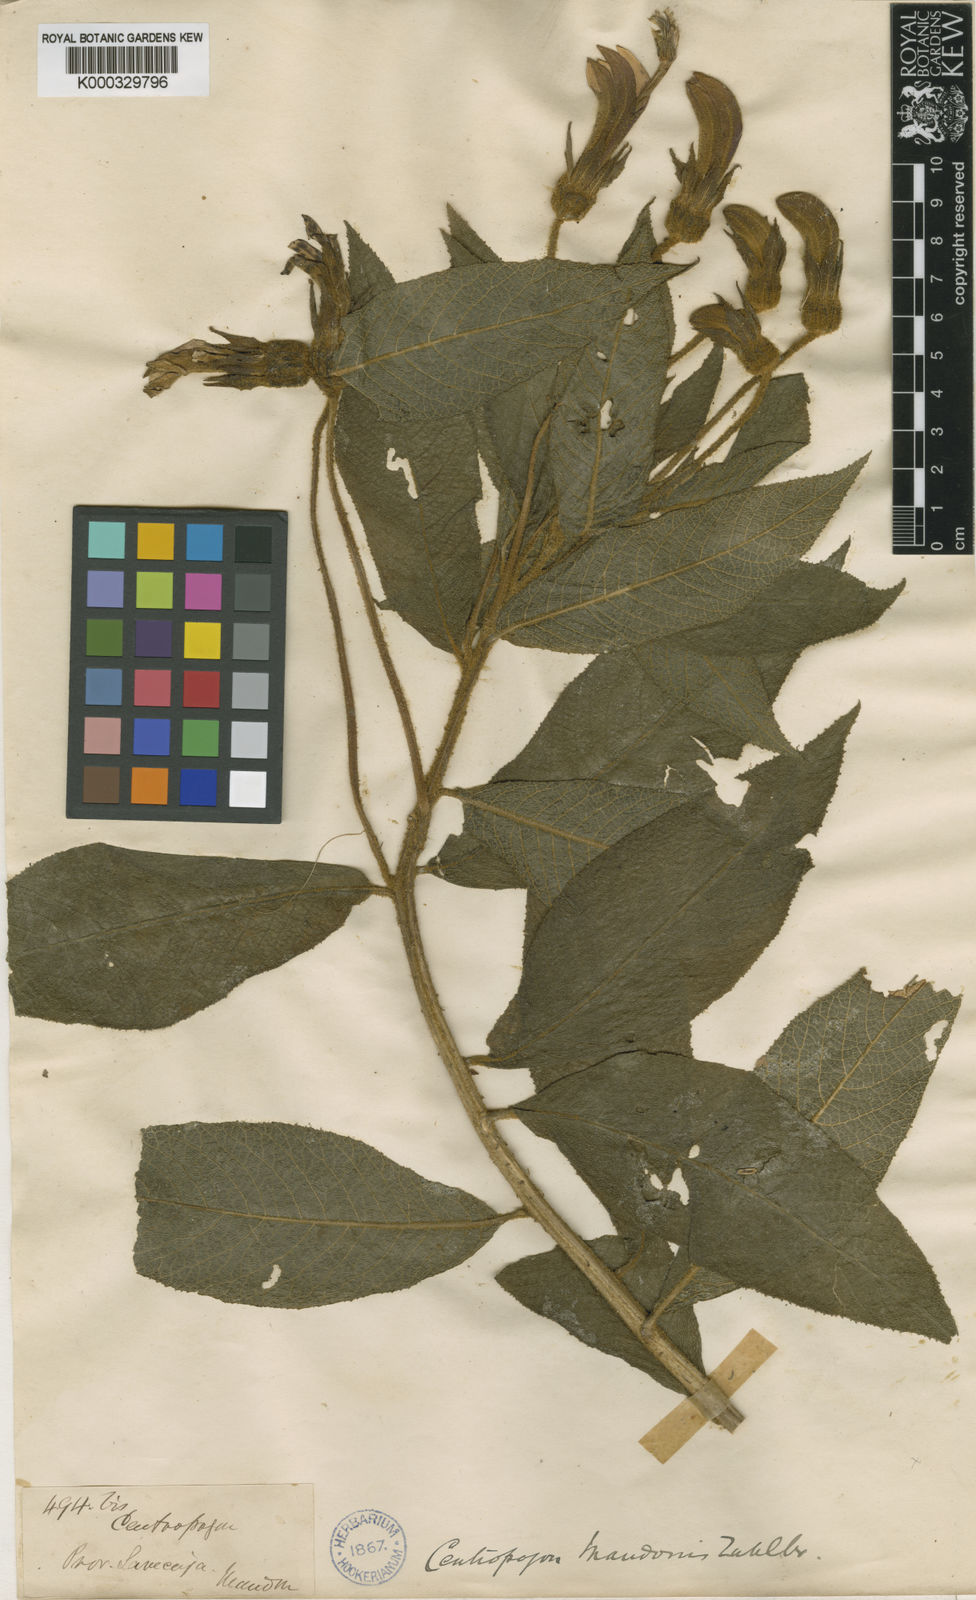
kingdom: Plantae
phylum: Tracheophyta
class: Magnoliopsida
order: Asterales
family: Campanulaceae
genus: Centropogon
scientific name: Centropogon mandonis
